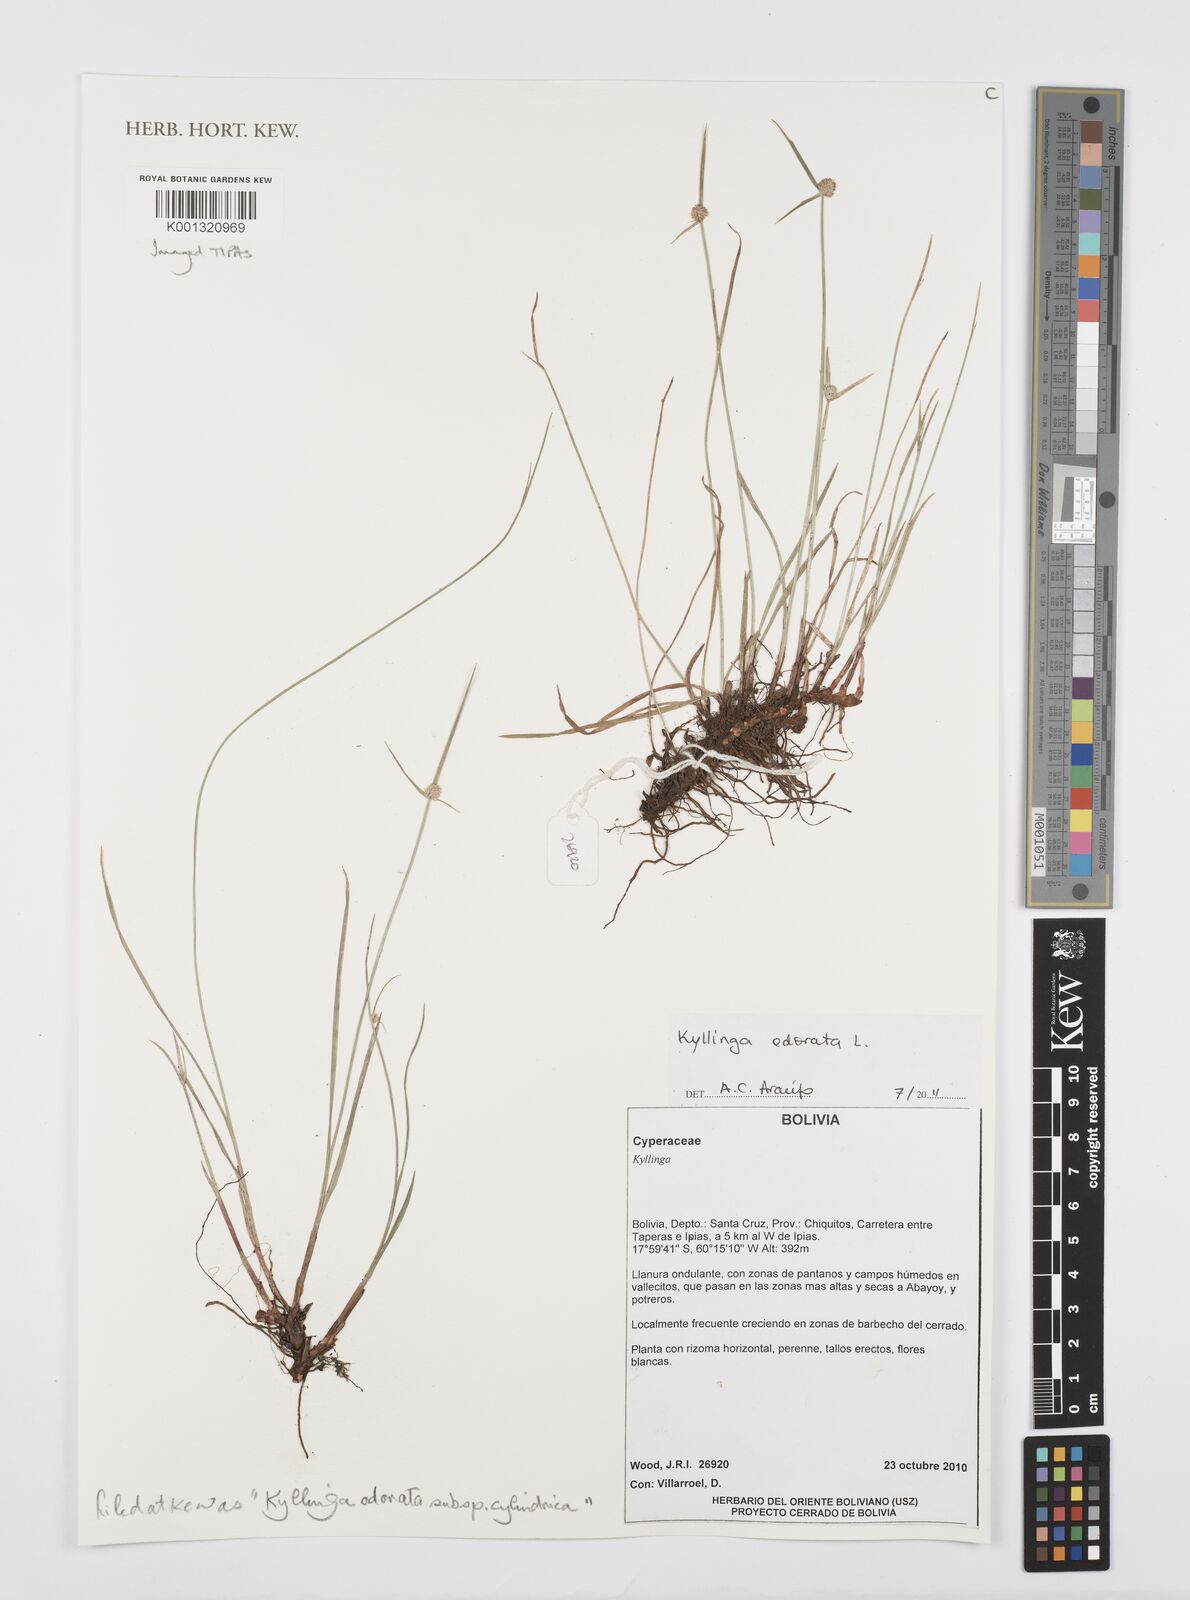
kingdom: Plantae
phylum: Tracheophyta
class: Liliopsida
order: Poales
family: Cyperaceae
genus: Cyperus
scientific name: Cyperus
